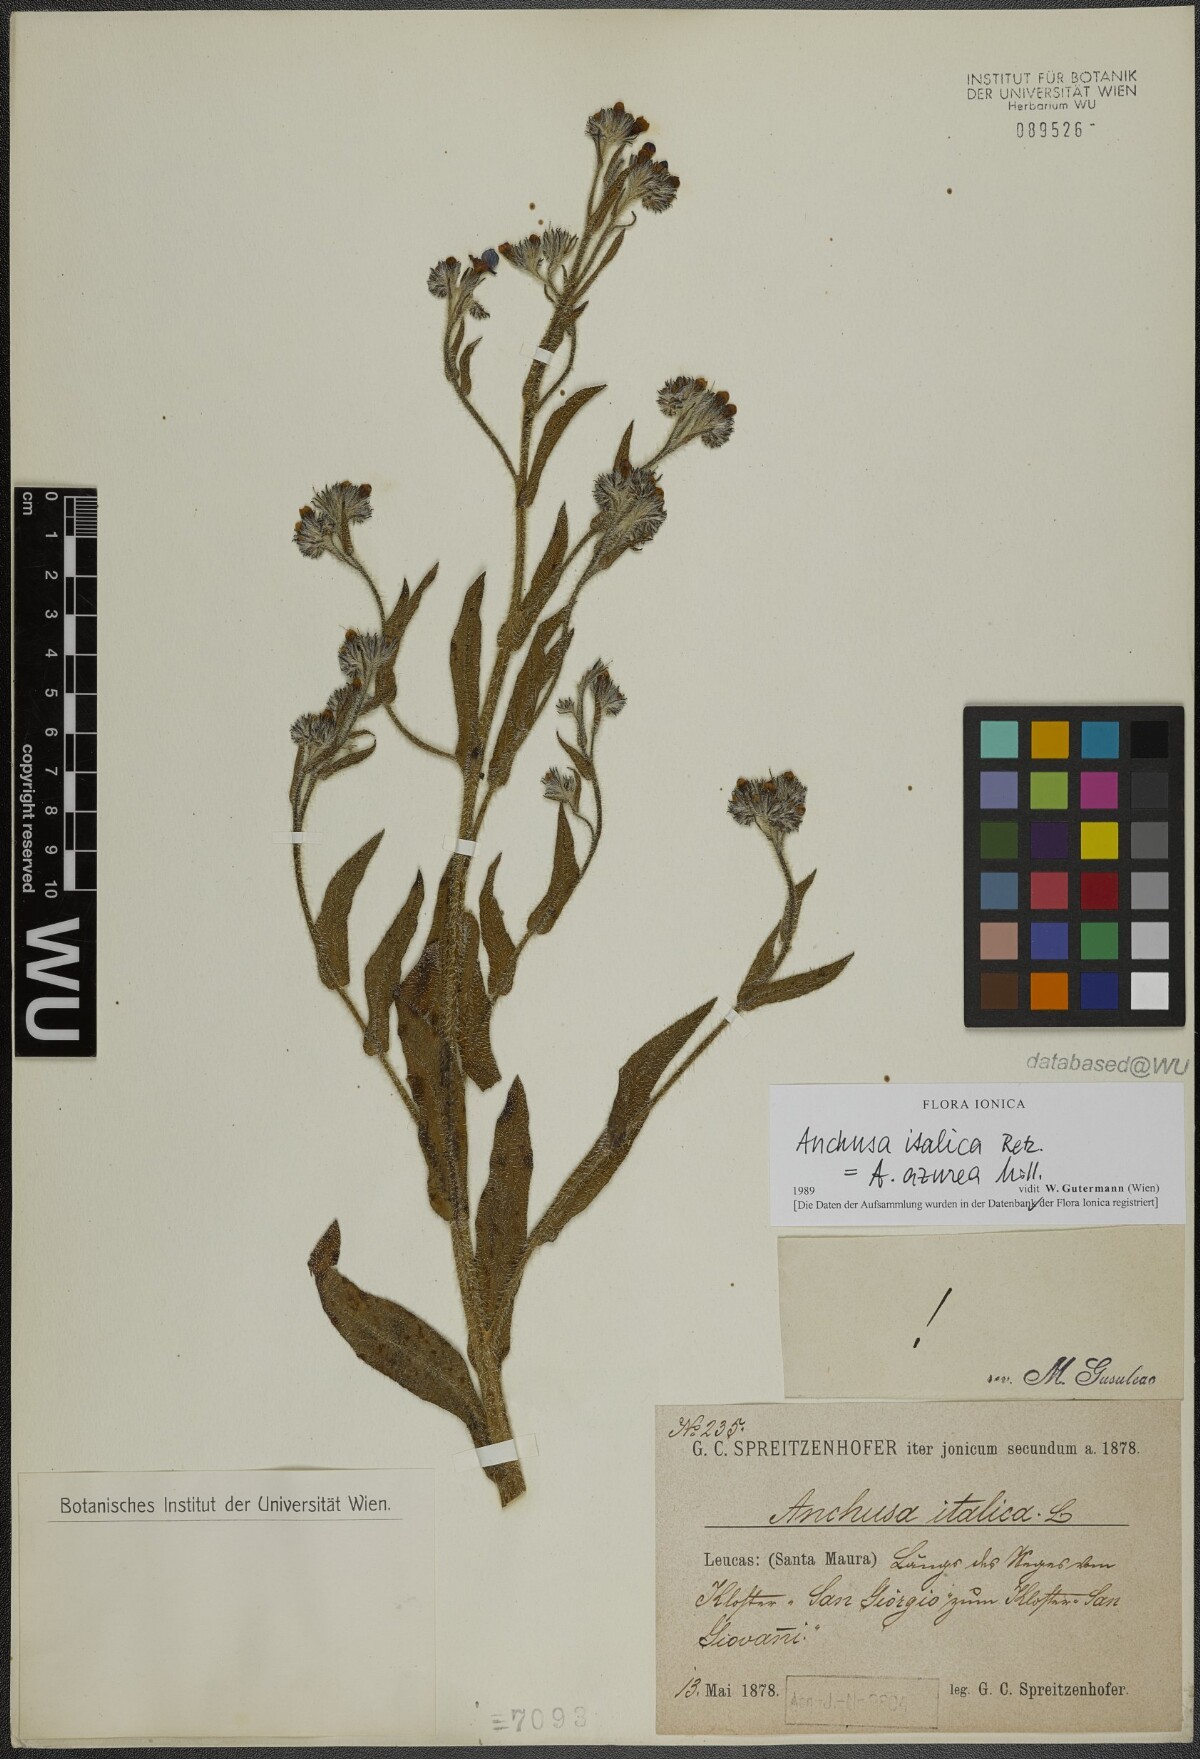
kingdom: Plantae
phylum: Tracheophyta
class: Magnoliopsida
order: Boraginales
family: Boraginaceae
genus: Anchusa
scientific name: Anchusa azurea
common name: Garden anchusa
